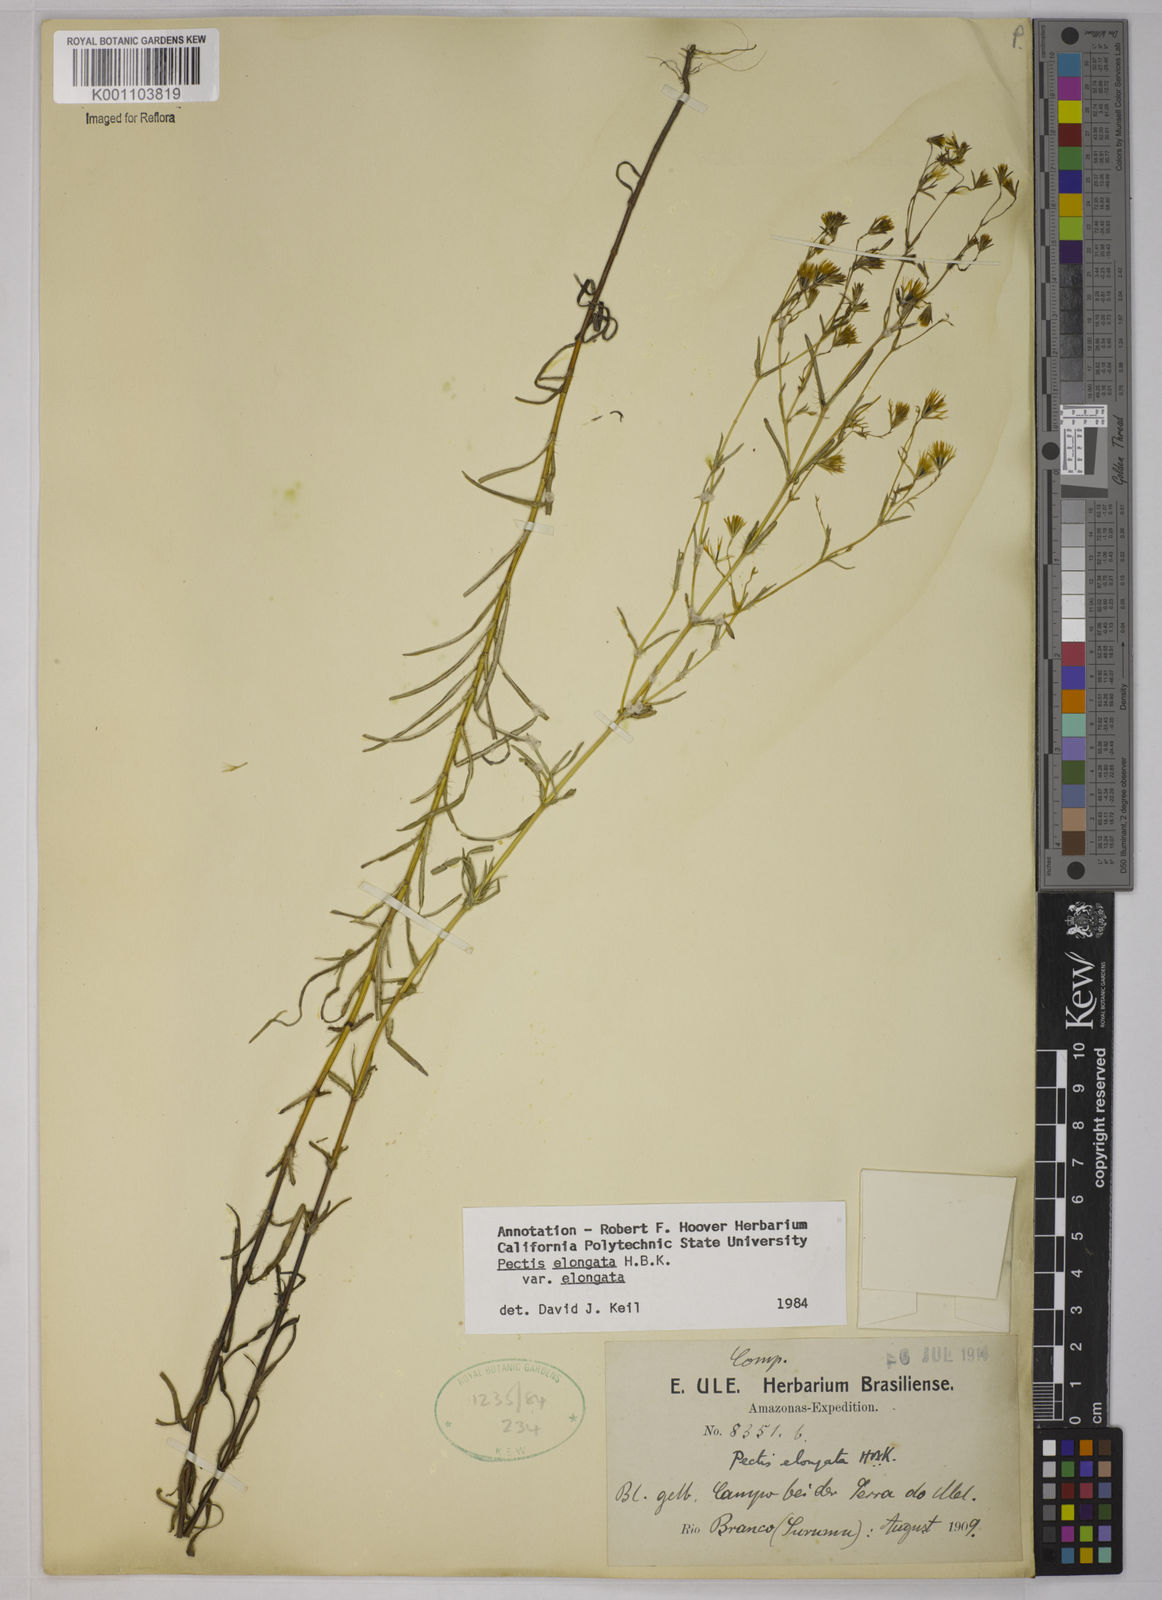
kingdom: Plantae
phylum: Tracheophyta
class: Magnoliopsida
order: Asterales
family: Asteraceae
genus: Pectis
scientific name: Pectis elongata
